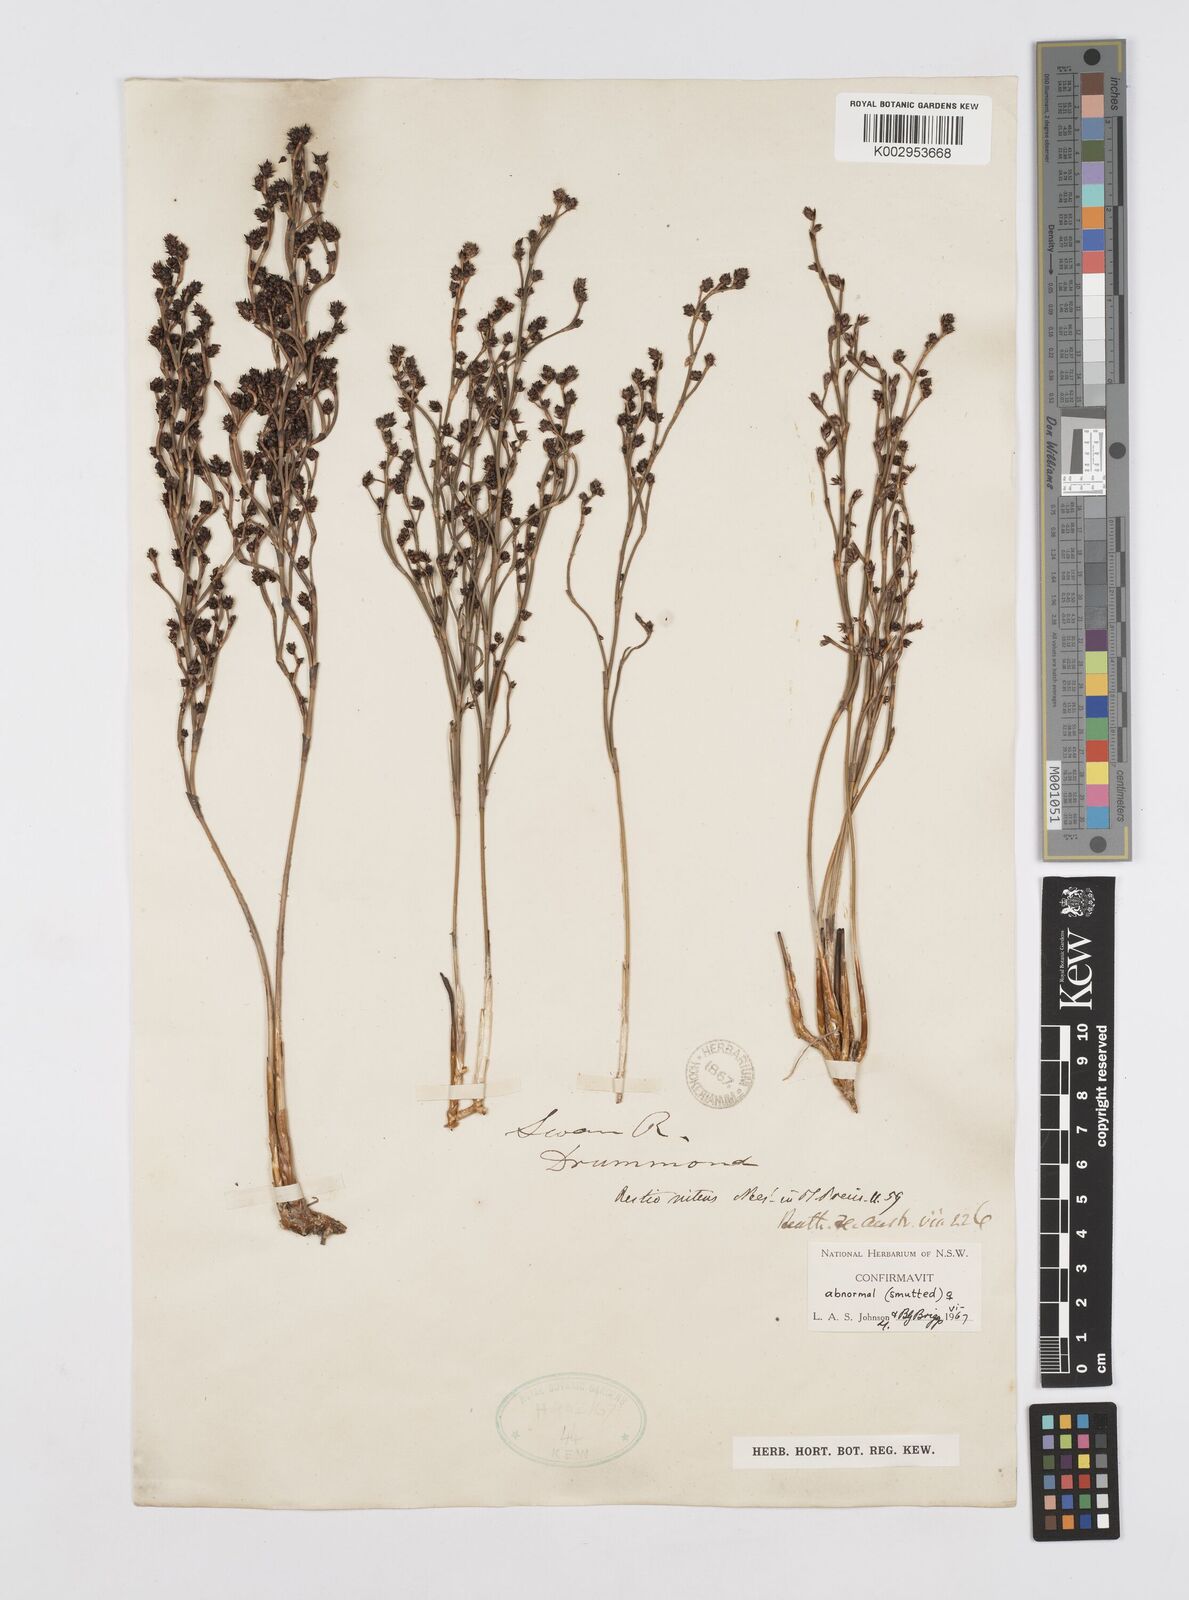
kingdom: Plantae
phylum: Tracheophyta
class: Liliopsida
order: Poales
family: Restionaceae
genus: Alexgeorgea
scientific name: Alexgeorgea nitens
